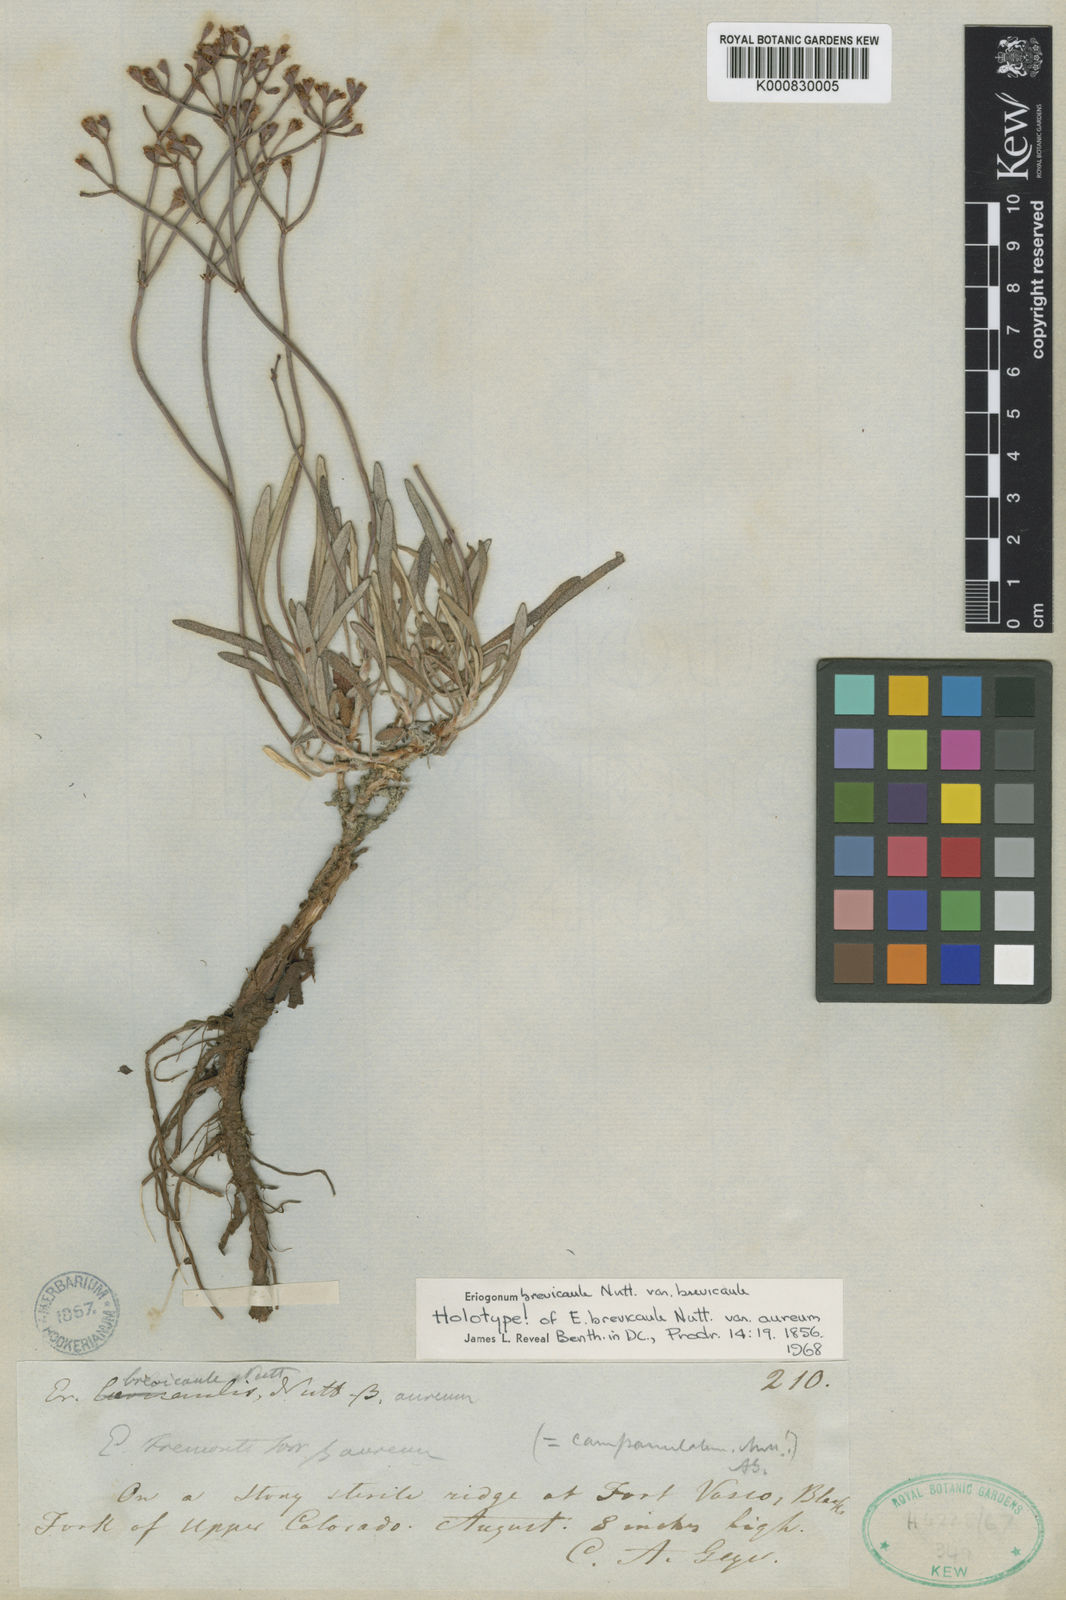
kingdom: Plantae
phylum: Tracheophyta
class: Magnoliopsida
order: Caryophyllales
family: Polygonaceae
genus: Eriogonum
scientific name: Eriogonum brevicaule
